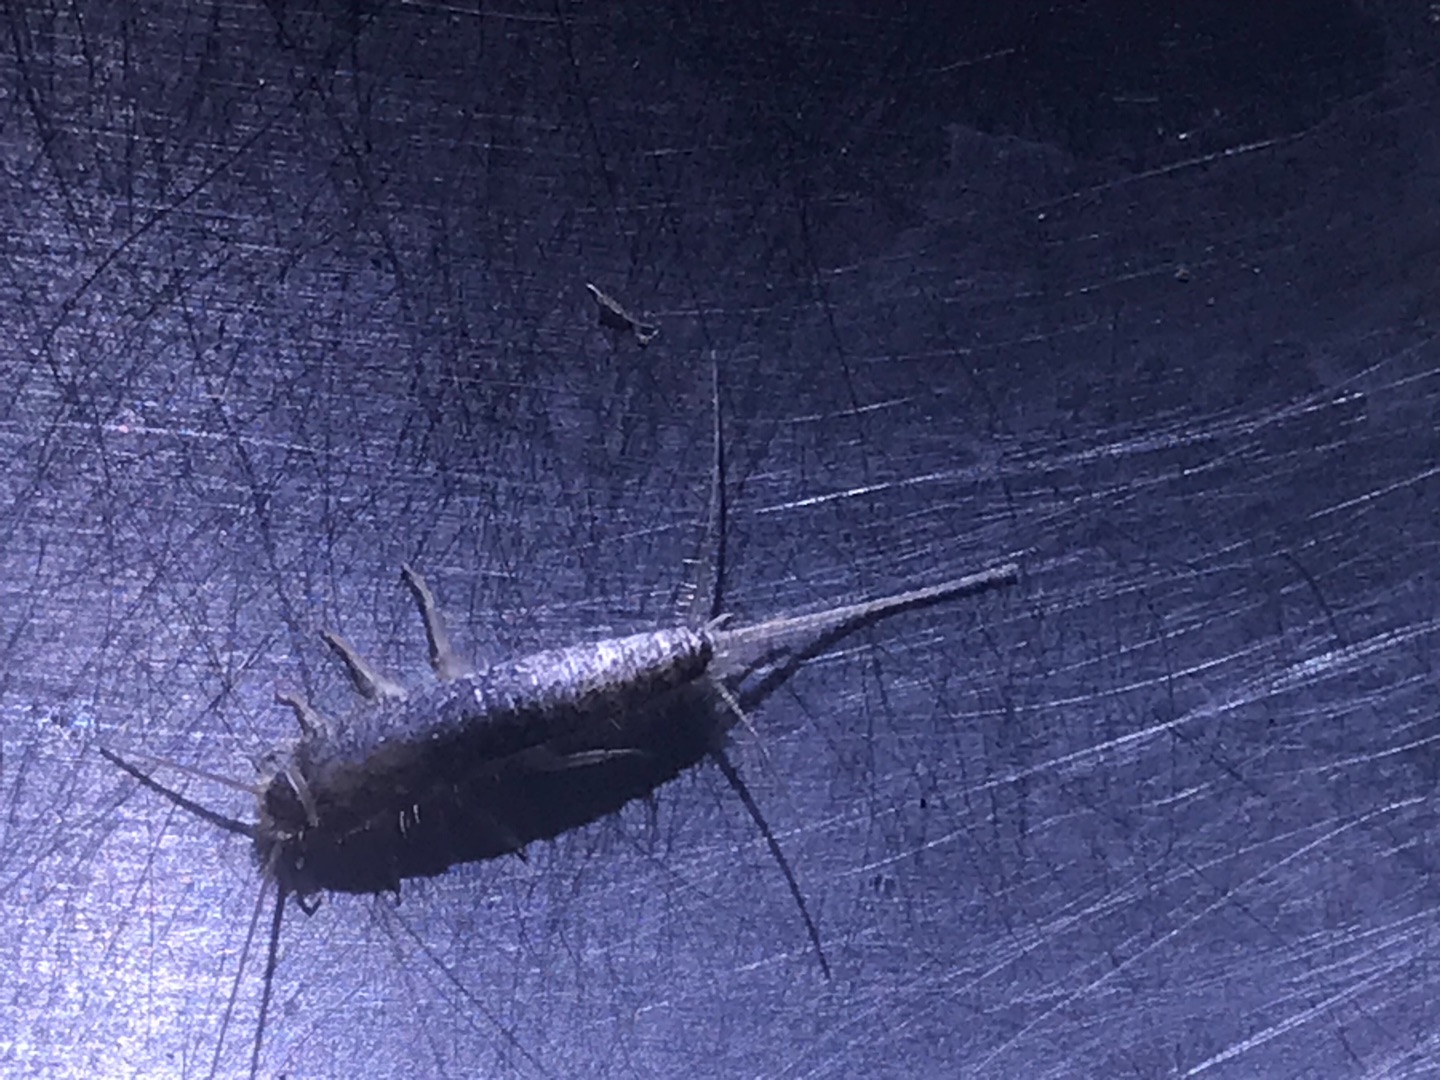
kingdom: Animalia
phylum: Arthropoda
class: Insecta
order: Zygentoma
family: Lepismatidae
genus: Ctenolepisma
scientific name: Ctenolepisma longicaudatum
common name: Skægget sølvkræ
